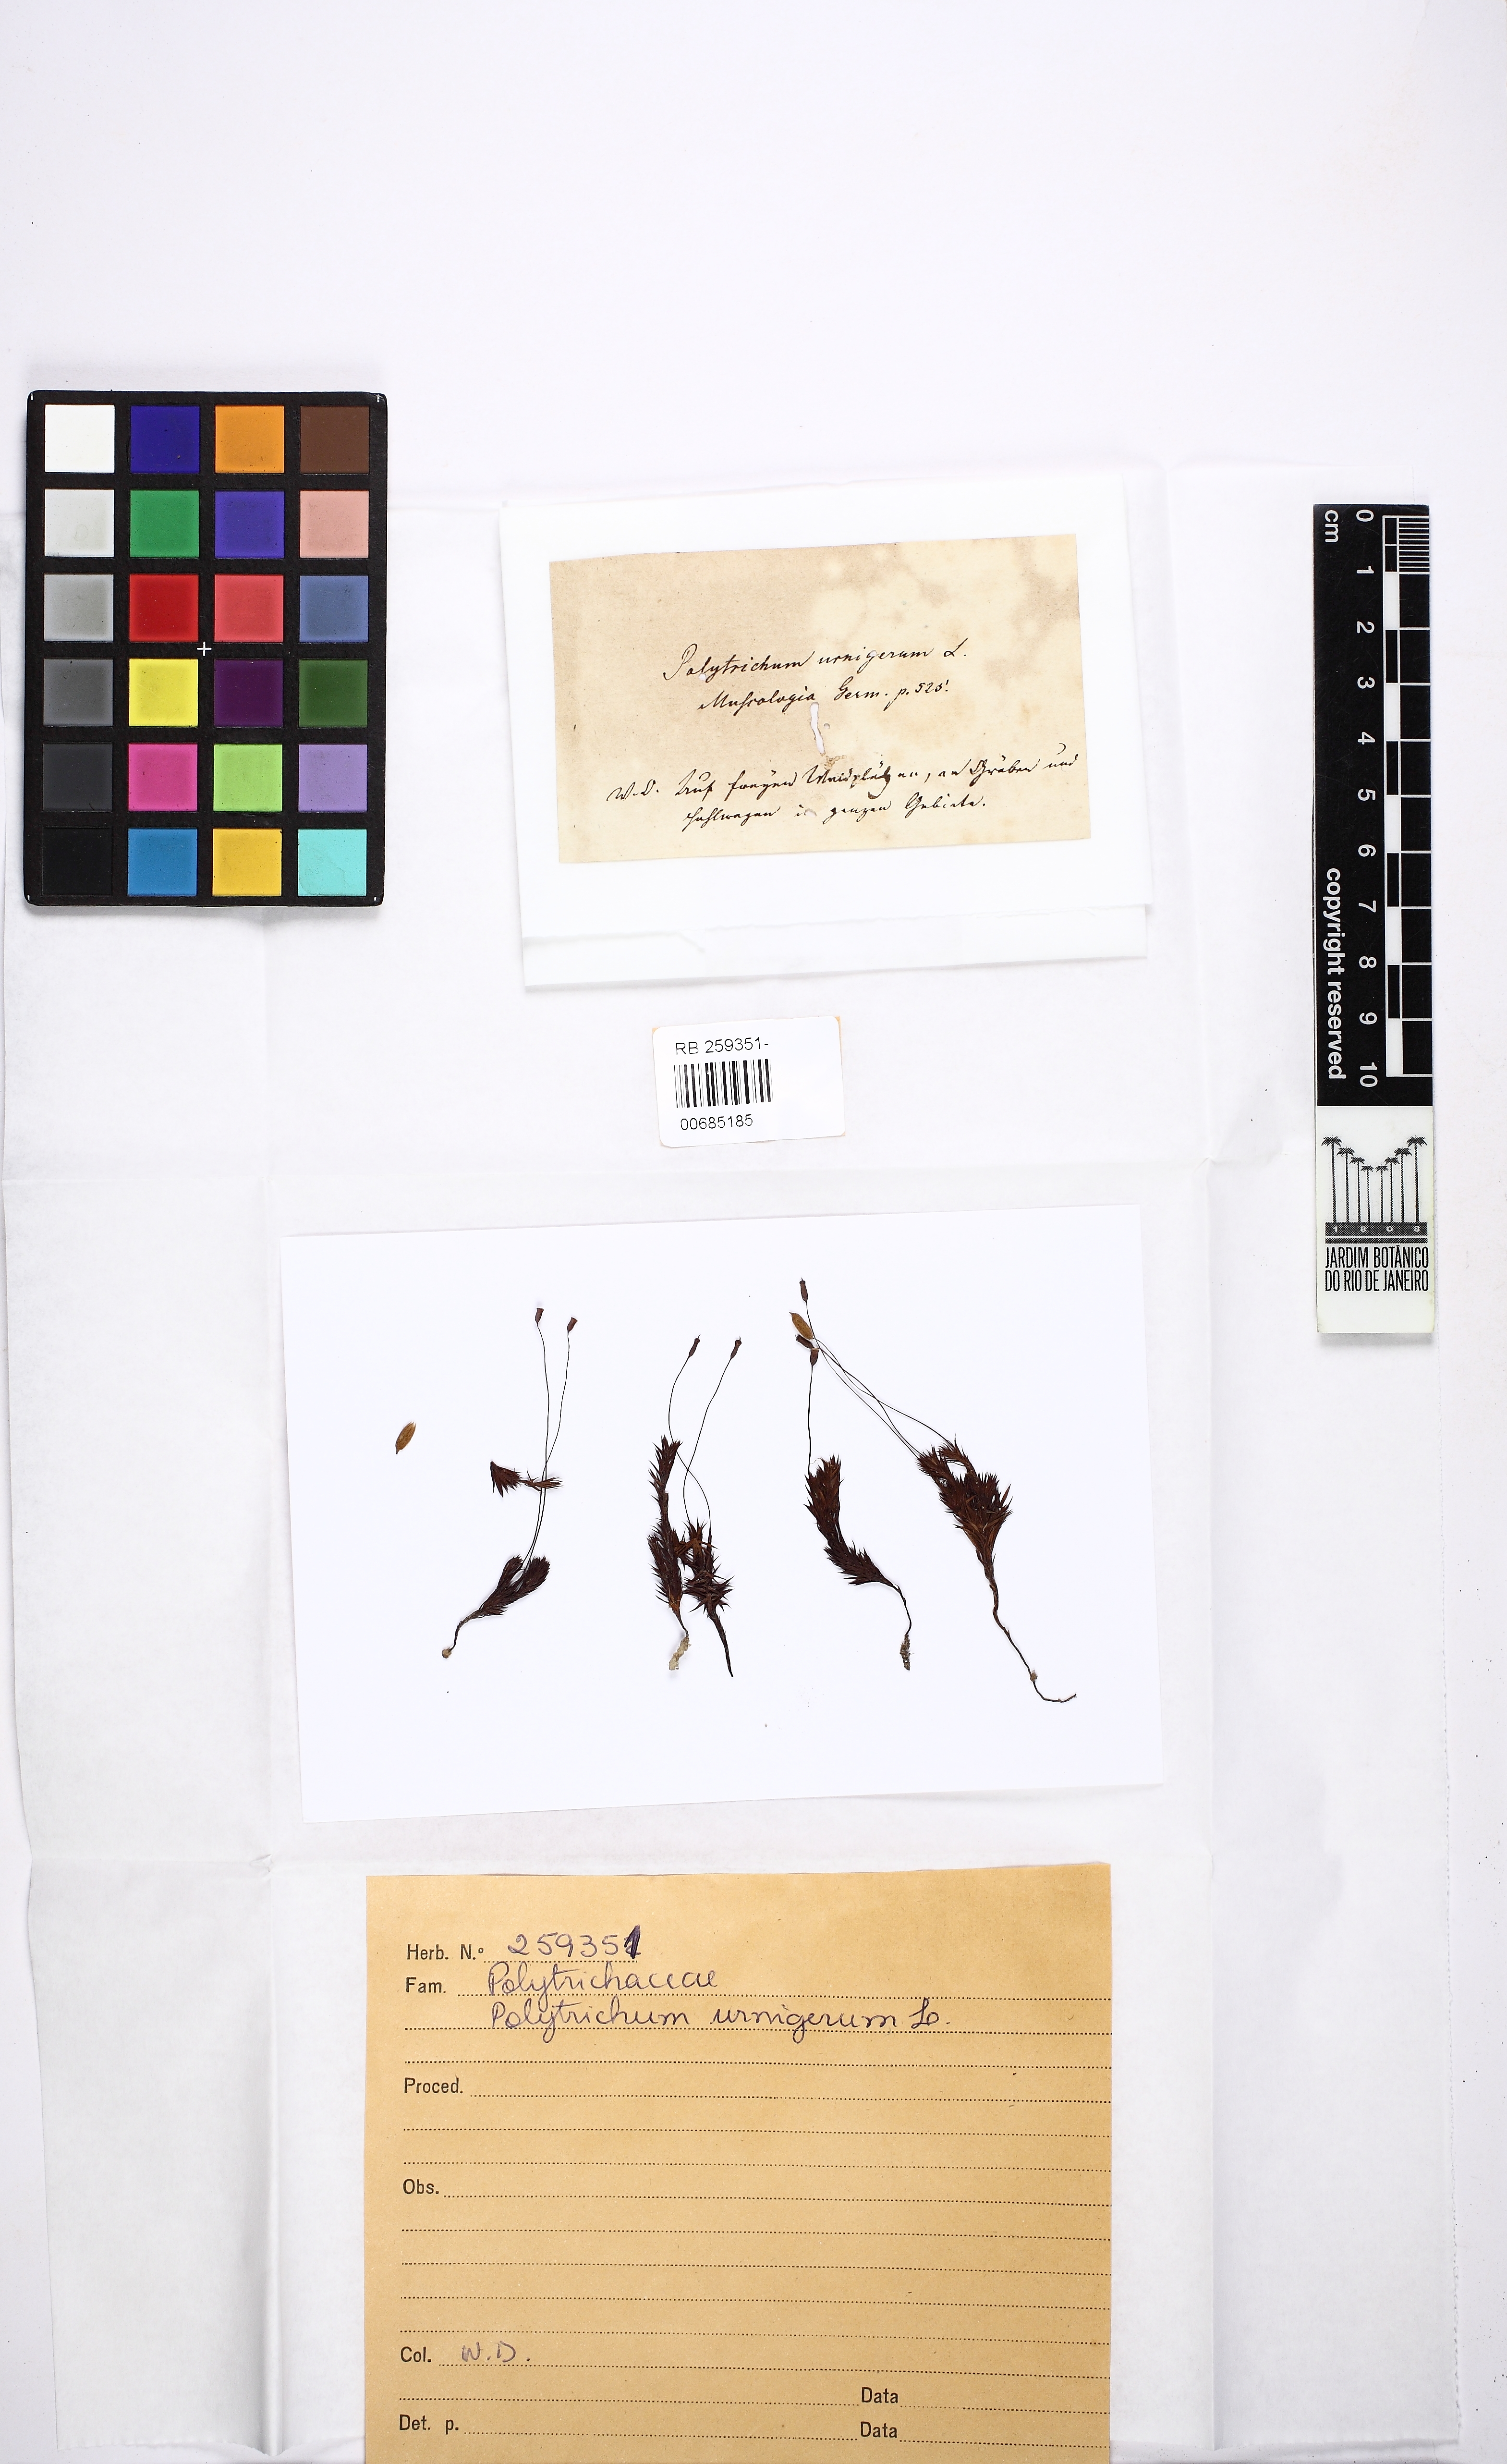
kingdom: Plantae
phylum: Bryophyta
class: Polytrichopsida
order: Polytrichales
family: Polytrichaceae
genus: Pogonatum
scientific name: Pogonatum urnigerum
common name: Urn hair moss
